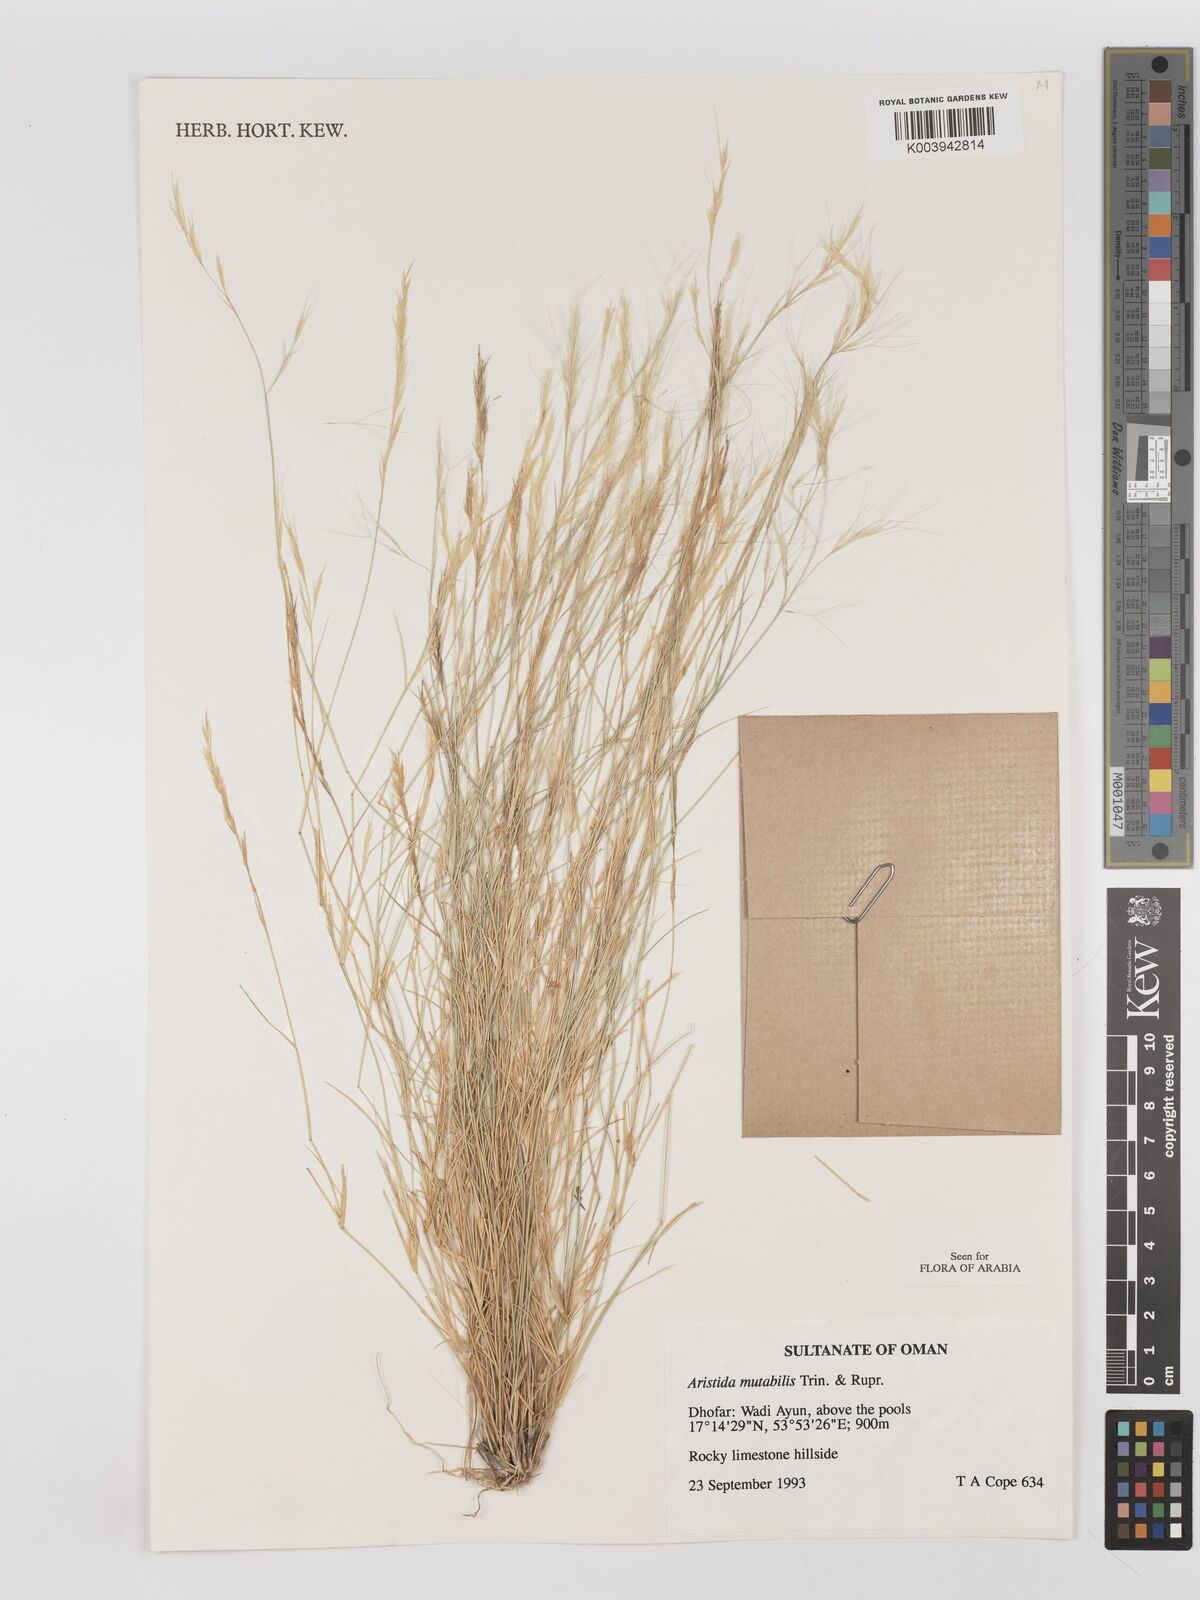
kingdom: Plantae
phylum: Tracheophyta
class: Liliopsida
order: Poales
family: Poaceae
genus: Aristida
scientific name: Aristida mutabilis
